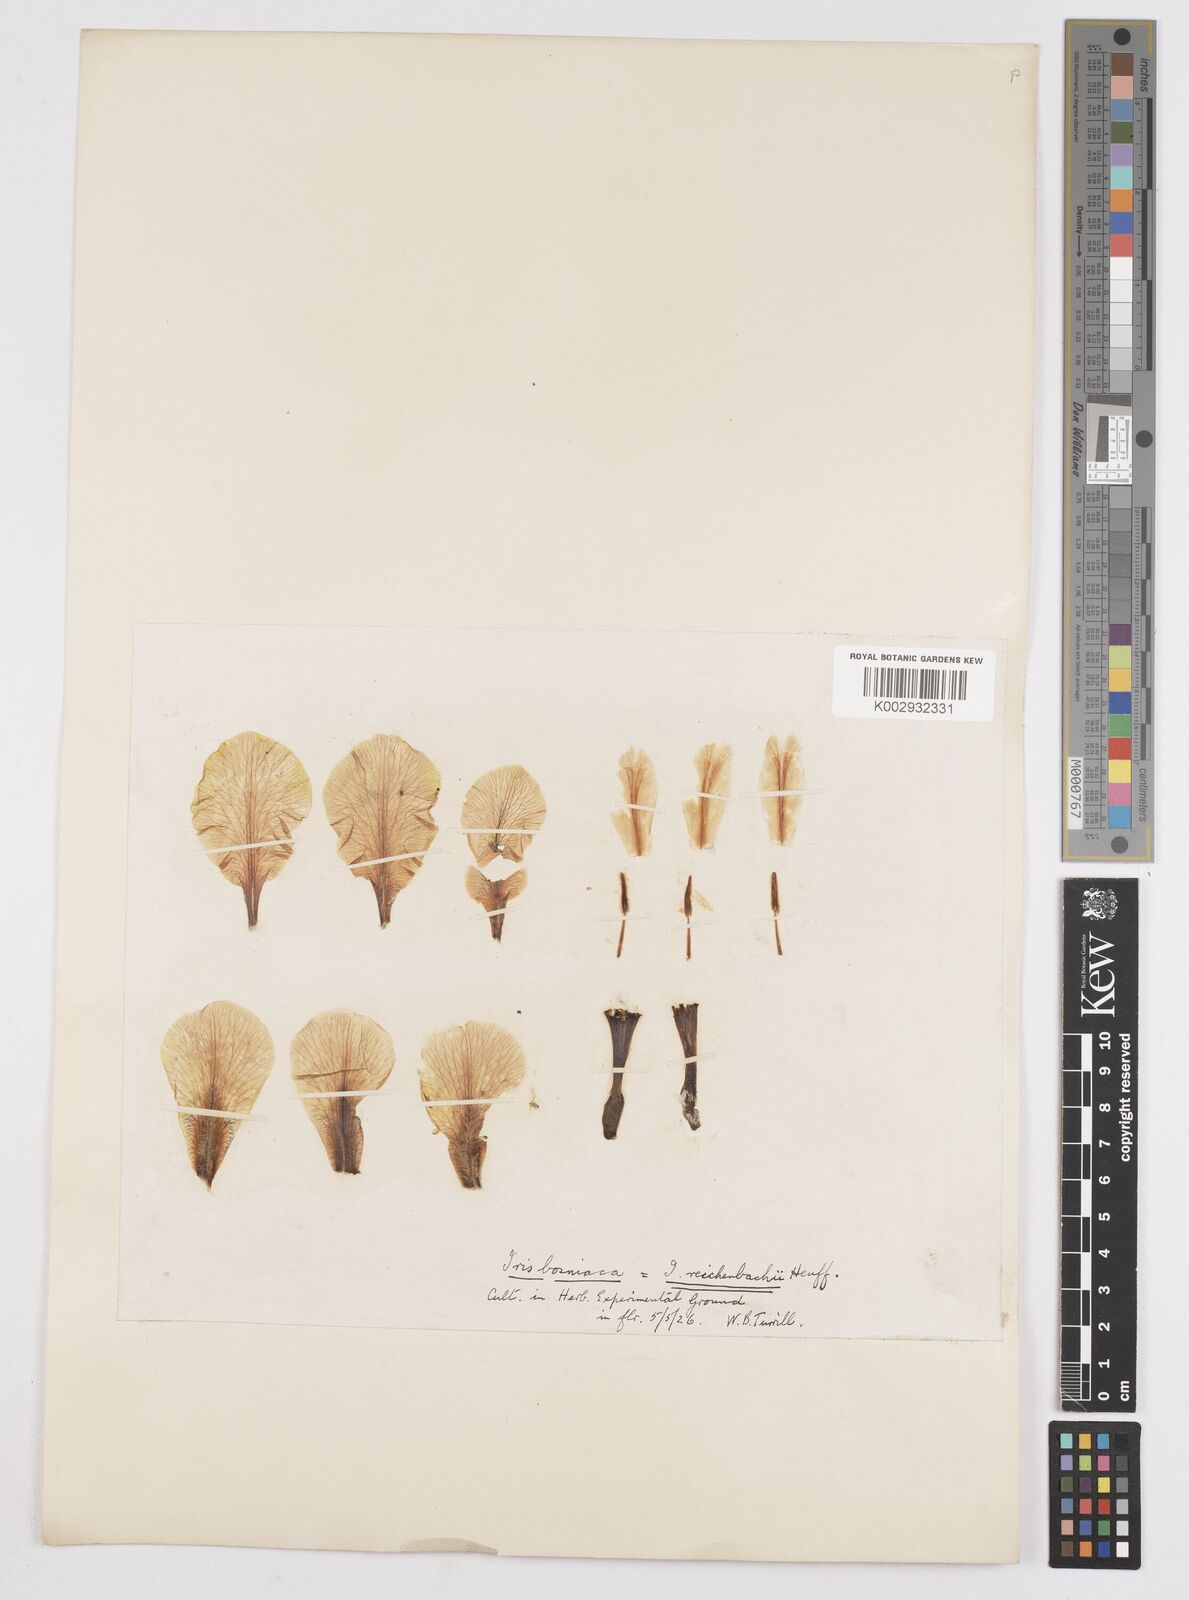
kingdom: Plantae
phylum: Tracheophyta
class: Liliopsida
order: Asparagales
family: Iridaceae
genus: Iris
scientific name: Iris reichenbachii
